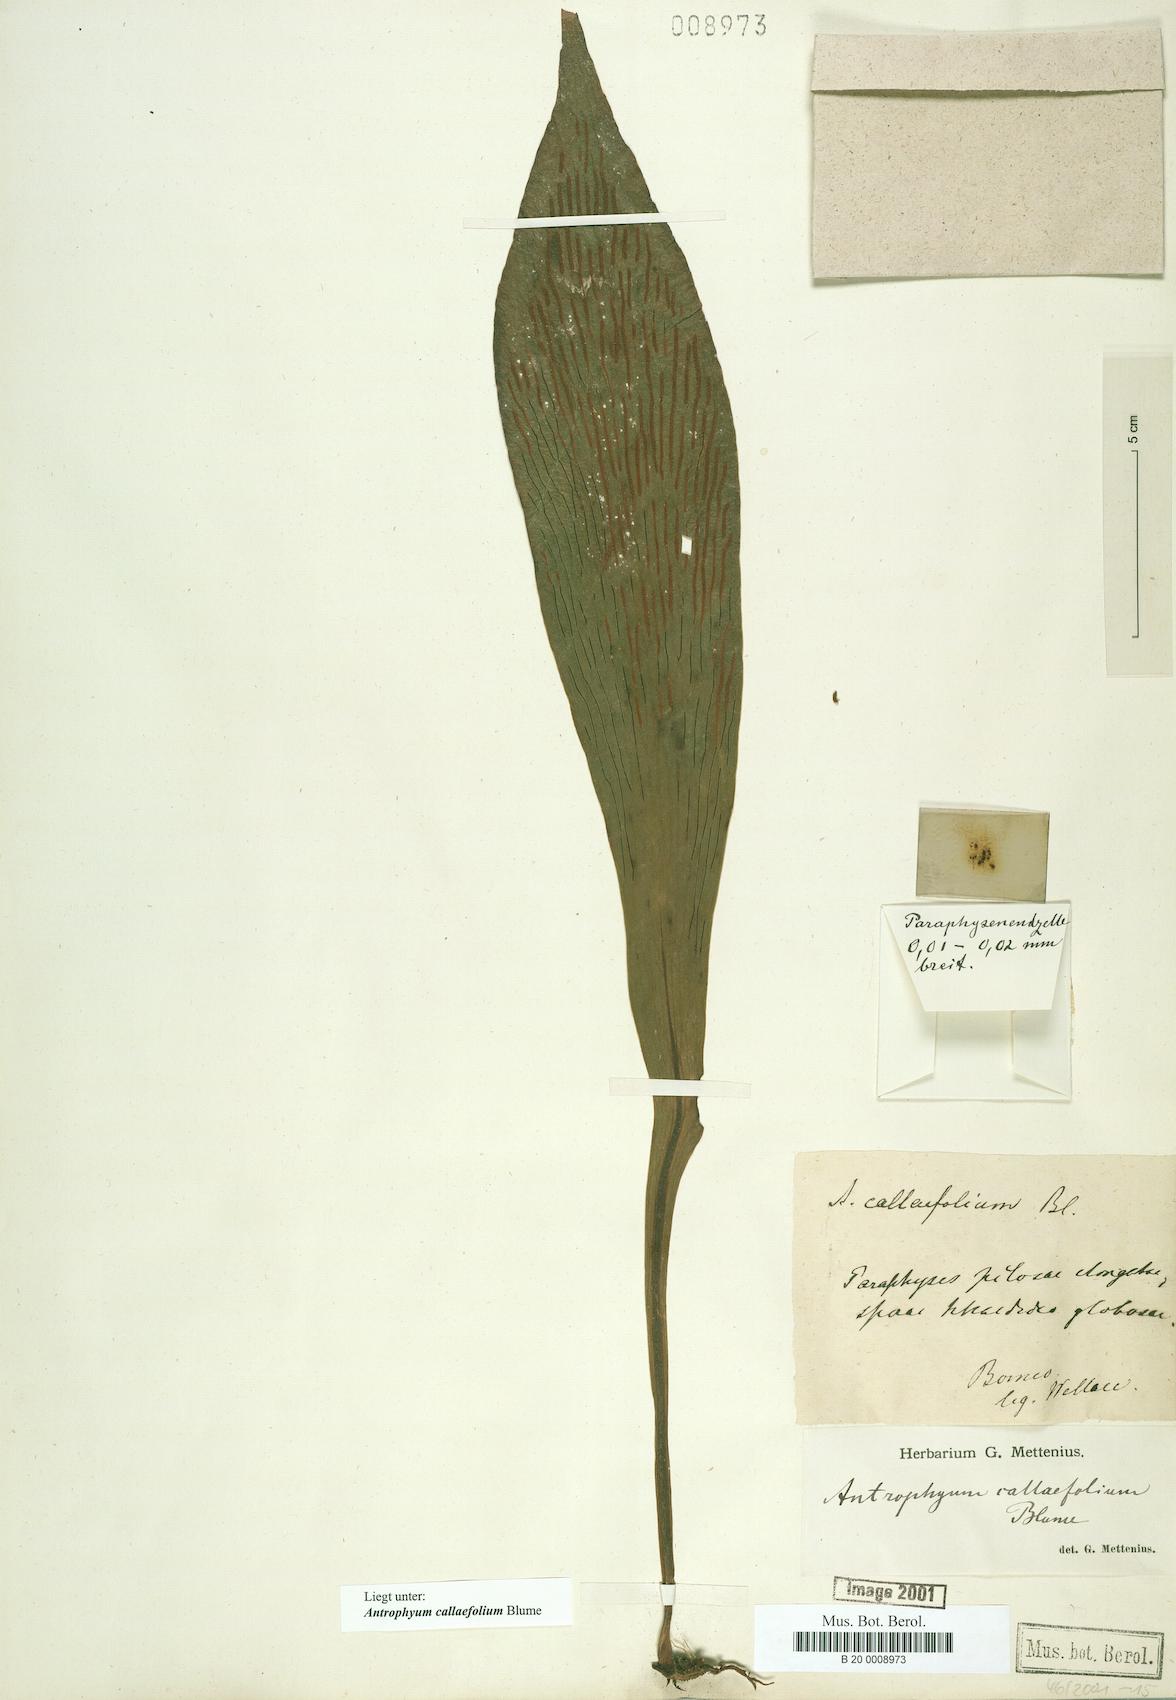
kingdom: Plantae
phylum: Tracheophyta
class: Polypodiopsida
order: Polypodiales
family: Pteridaceae
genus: Antrophyum
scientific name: Antrophyum callifolium
